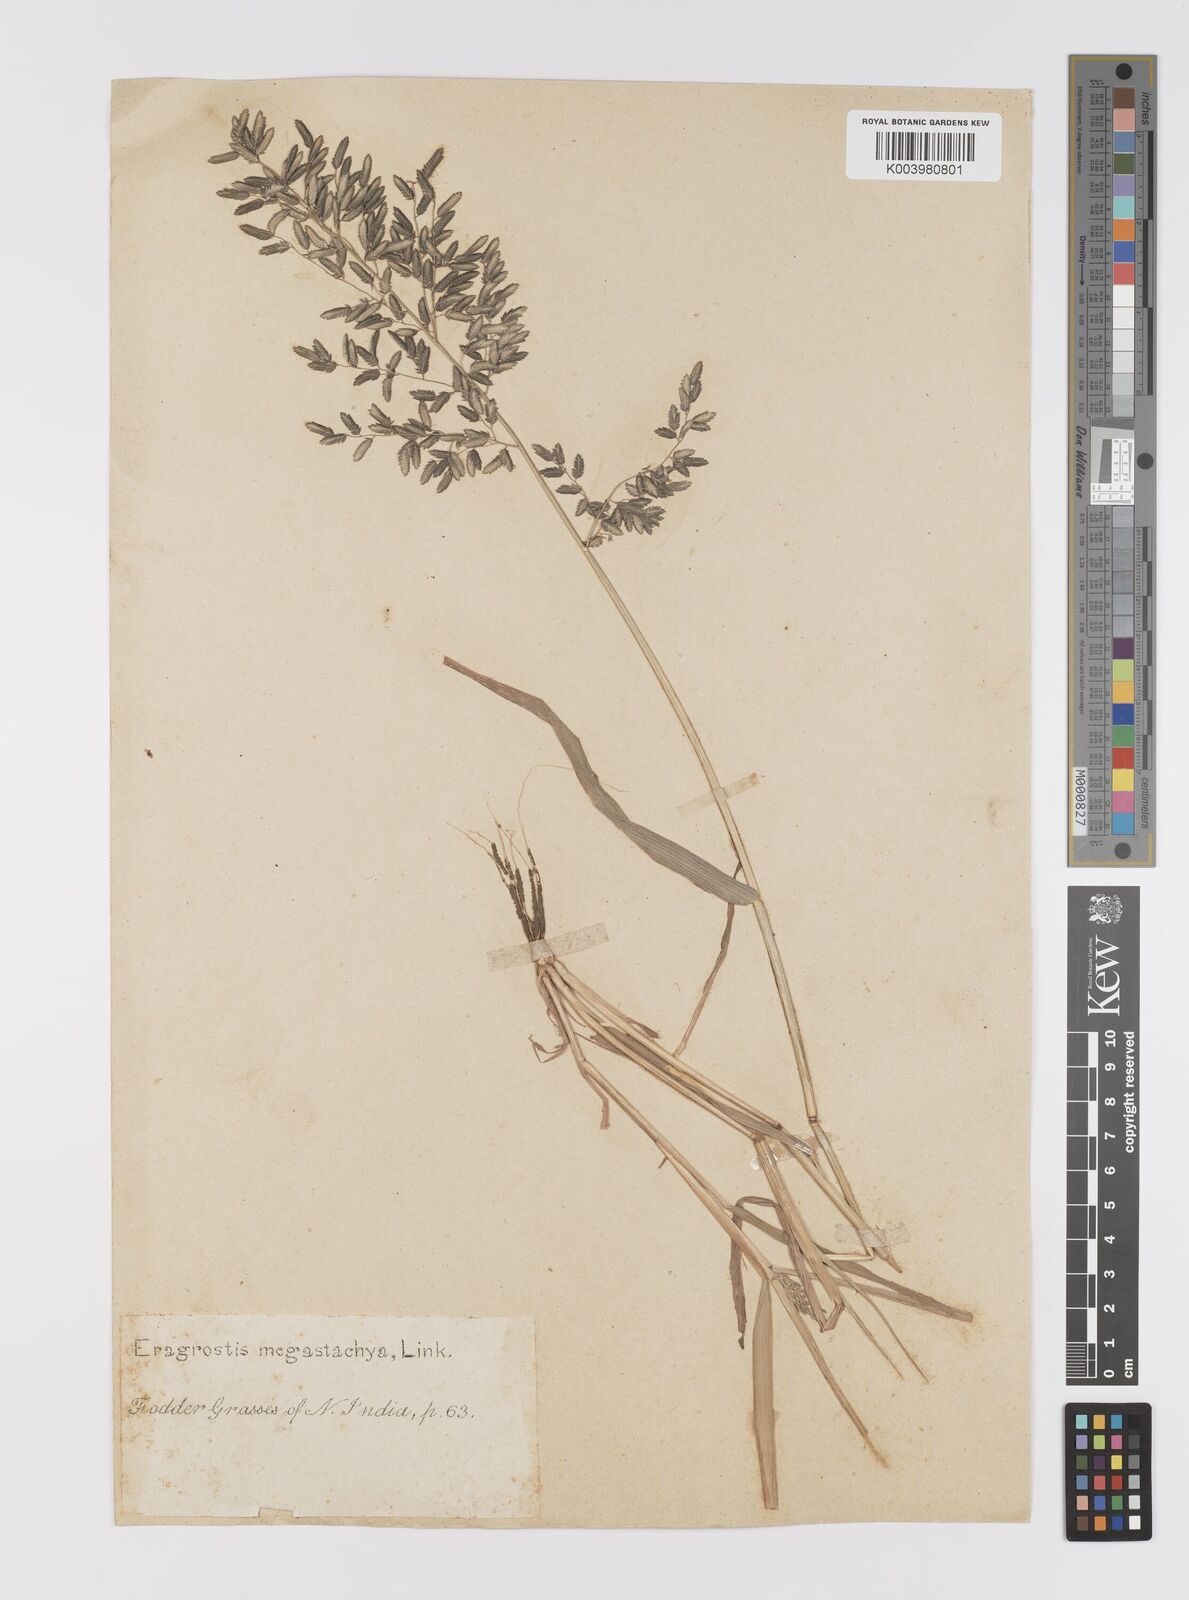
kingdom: Plantae
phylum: Tracheophyta
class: Liliopsida
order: Poales
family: Poaceae
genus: Eragrostis
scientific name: Eragrostis cilianensis
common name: Stinkgrass
